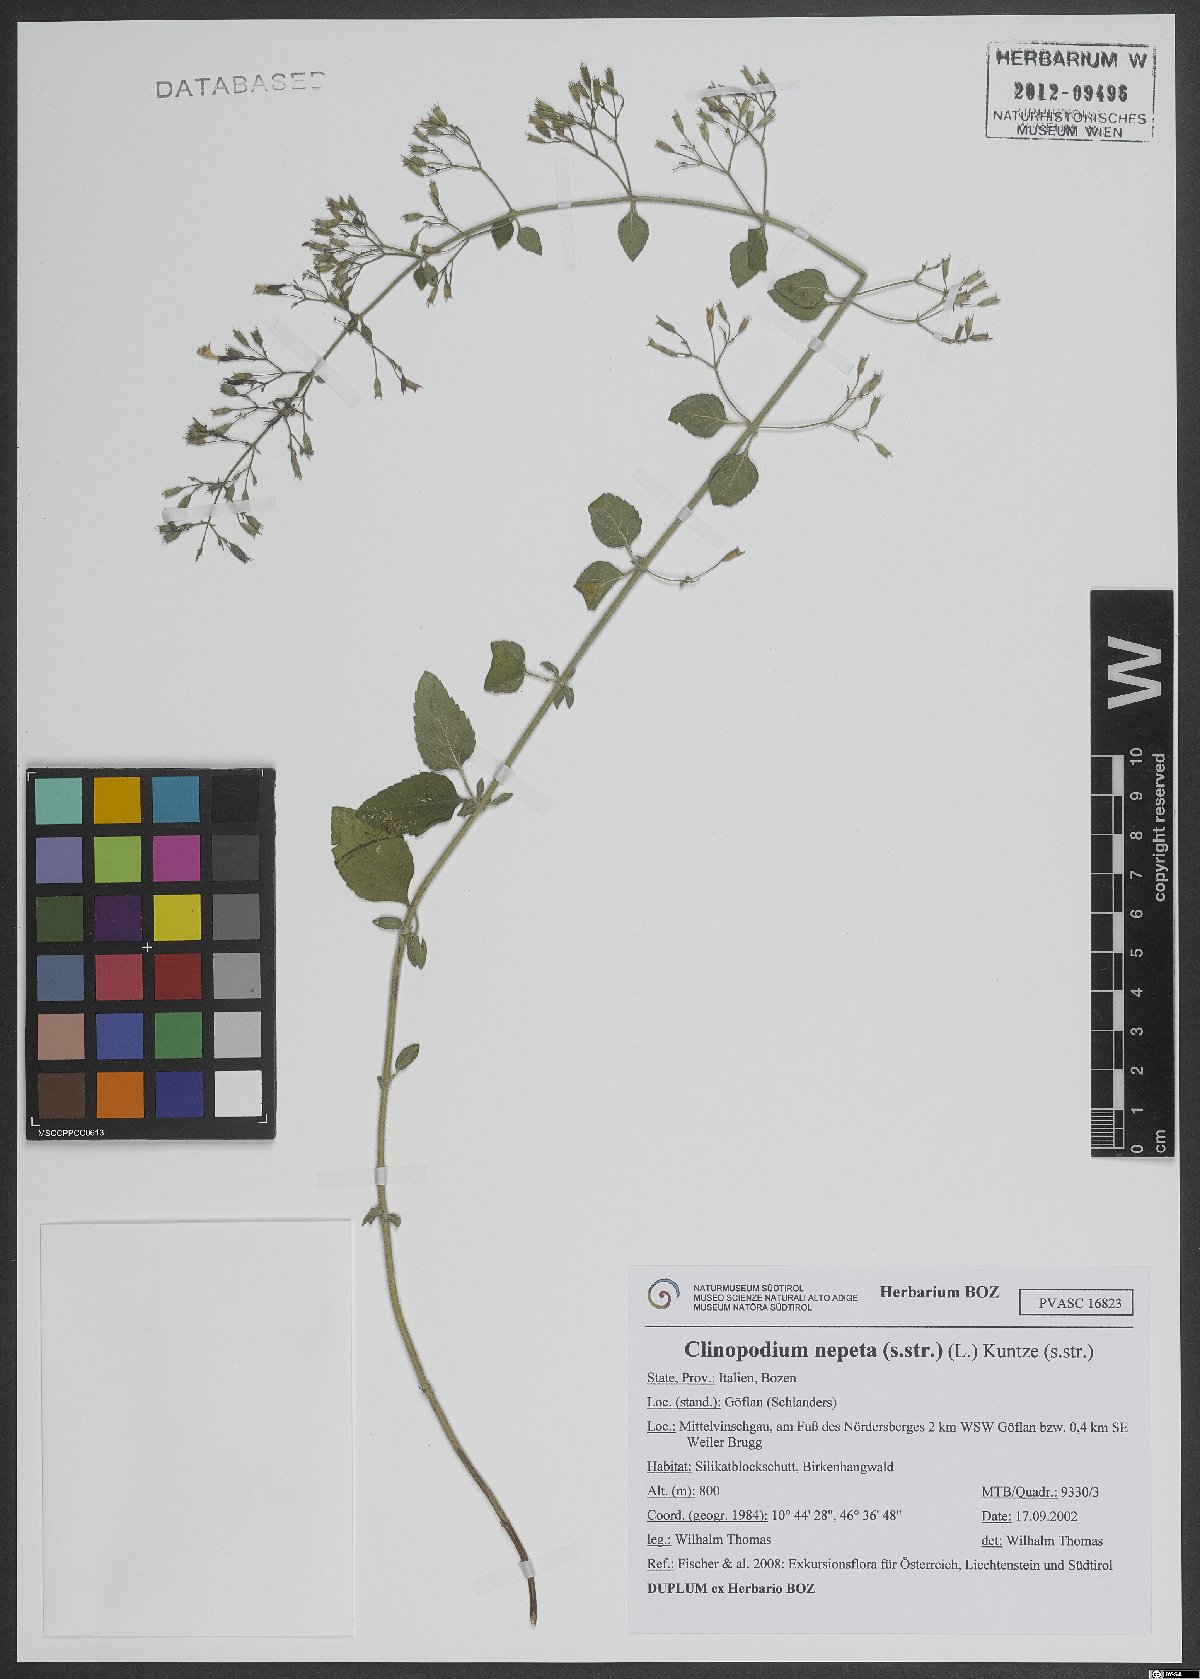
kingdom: Plantae
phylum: Tracheophyta
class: Magnoliopsida
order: Lamiales
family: Lamiaceae
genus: Clinopodium
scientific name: Clinopodium nepeta
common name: Lesser calamint
